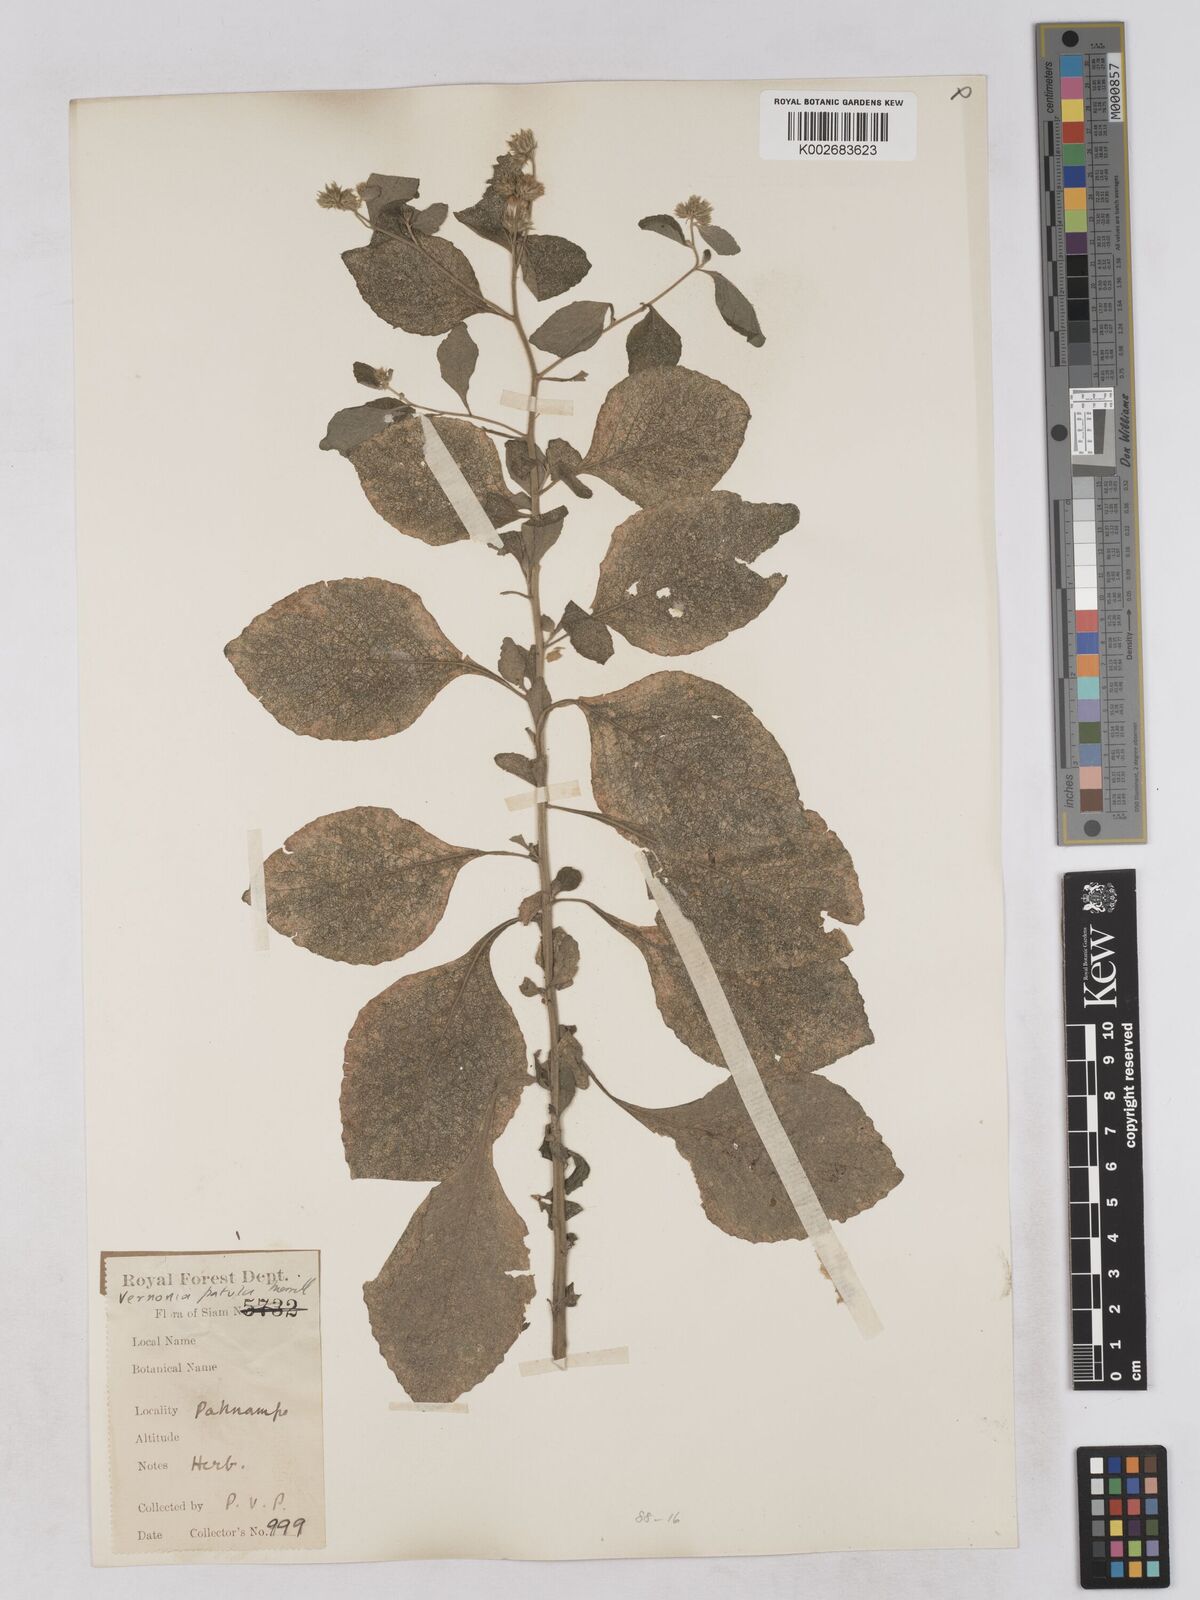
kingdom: Plantae
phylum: Tracheophyta
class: Magnoliopsida
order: Asterales
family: Asteraceae
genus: Cyanthillium
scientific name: Cyanthillium patulum
